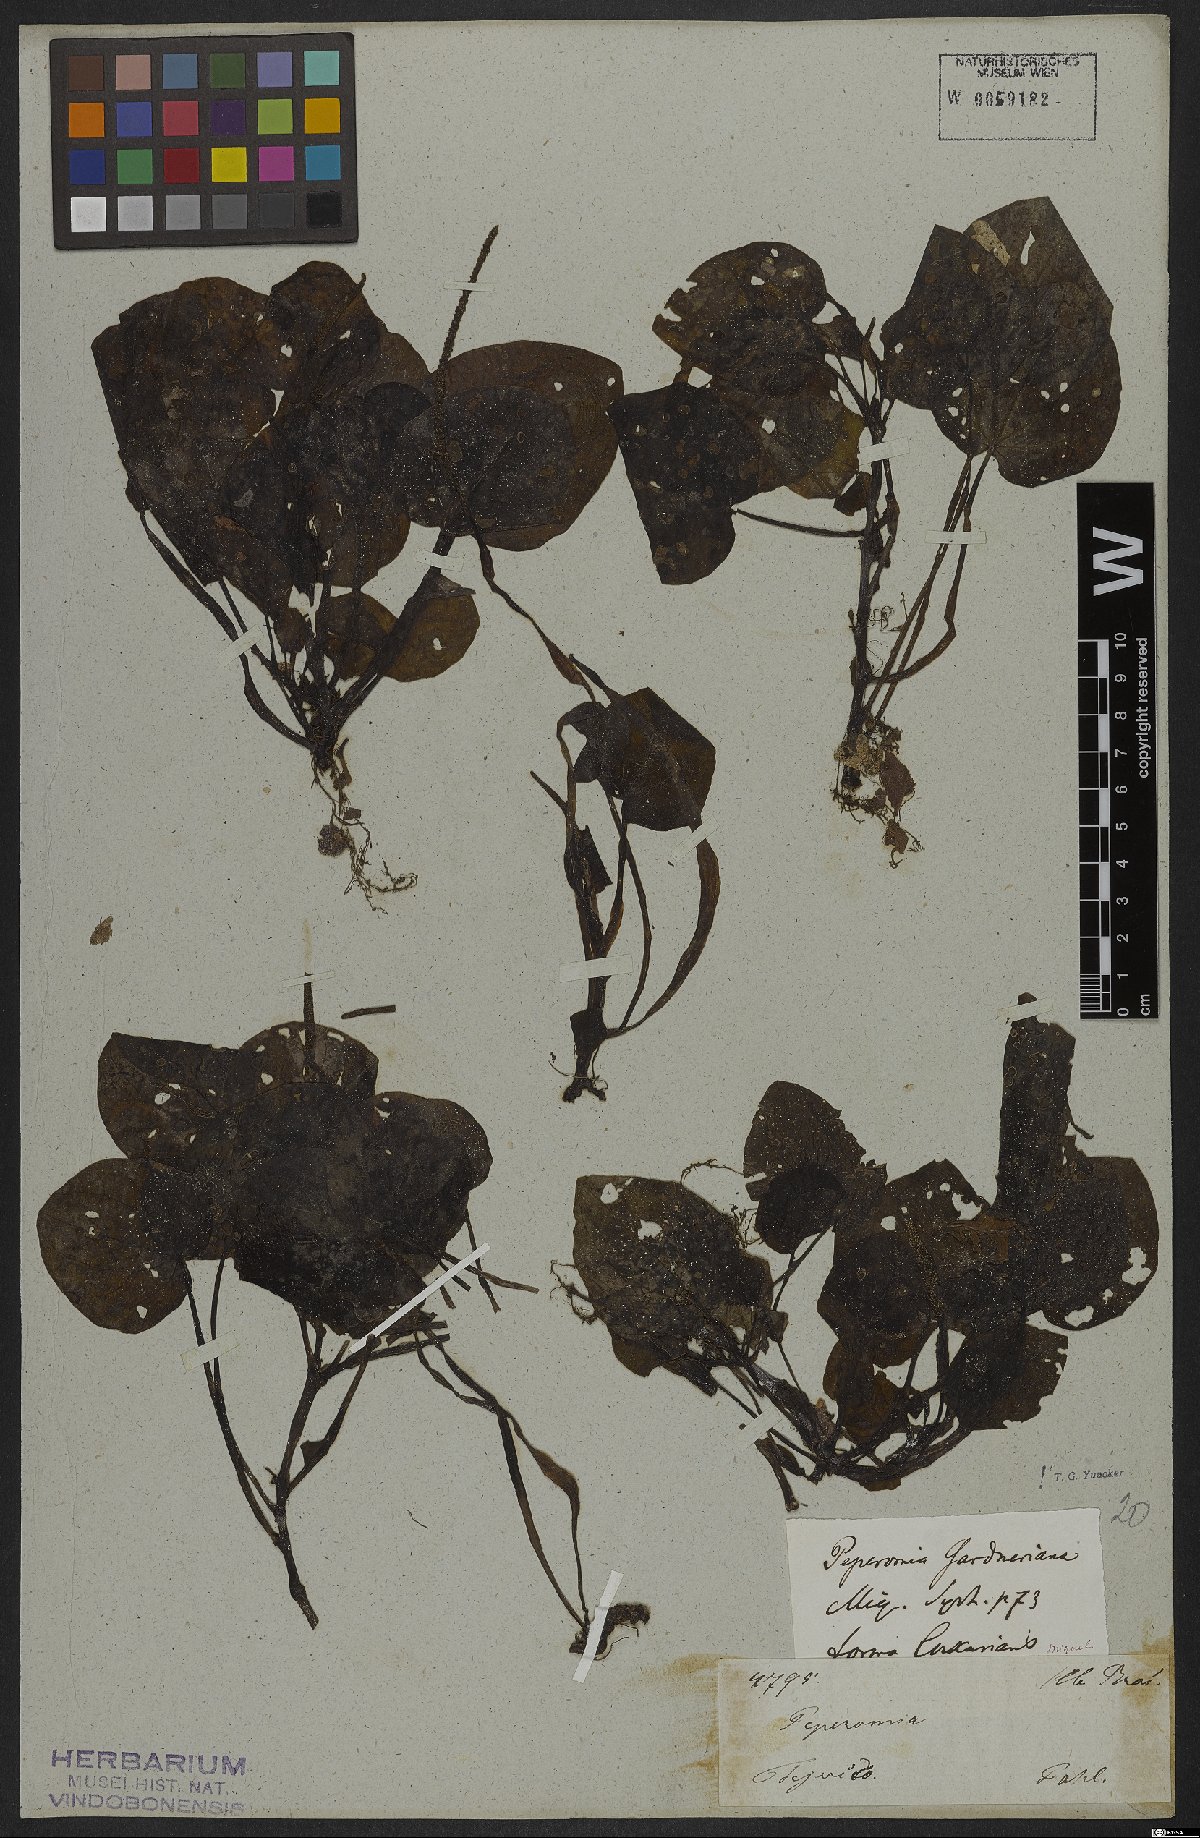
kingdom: Plantae
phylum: Tracheophyta
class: Magnoliopsida
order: Piperales
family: Piperaceae
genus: Peperomia
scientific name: Peperomia gardneriana
